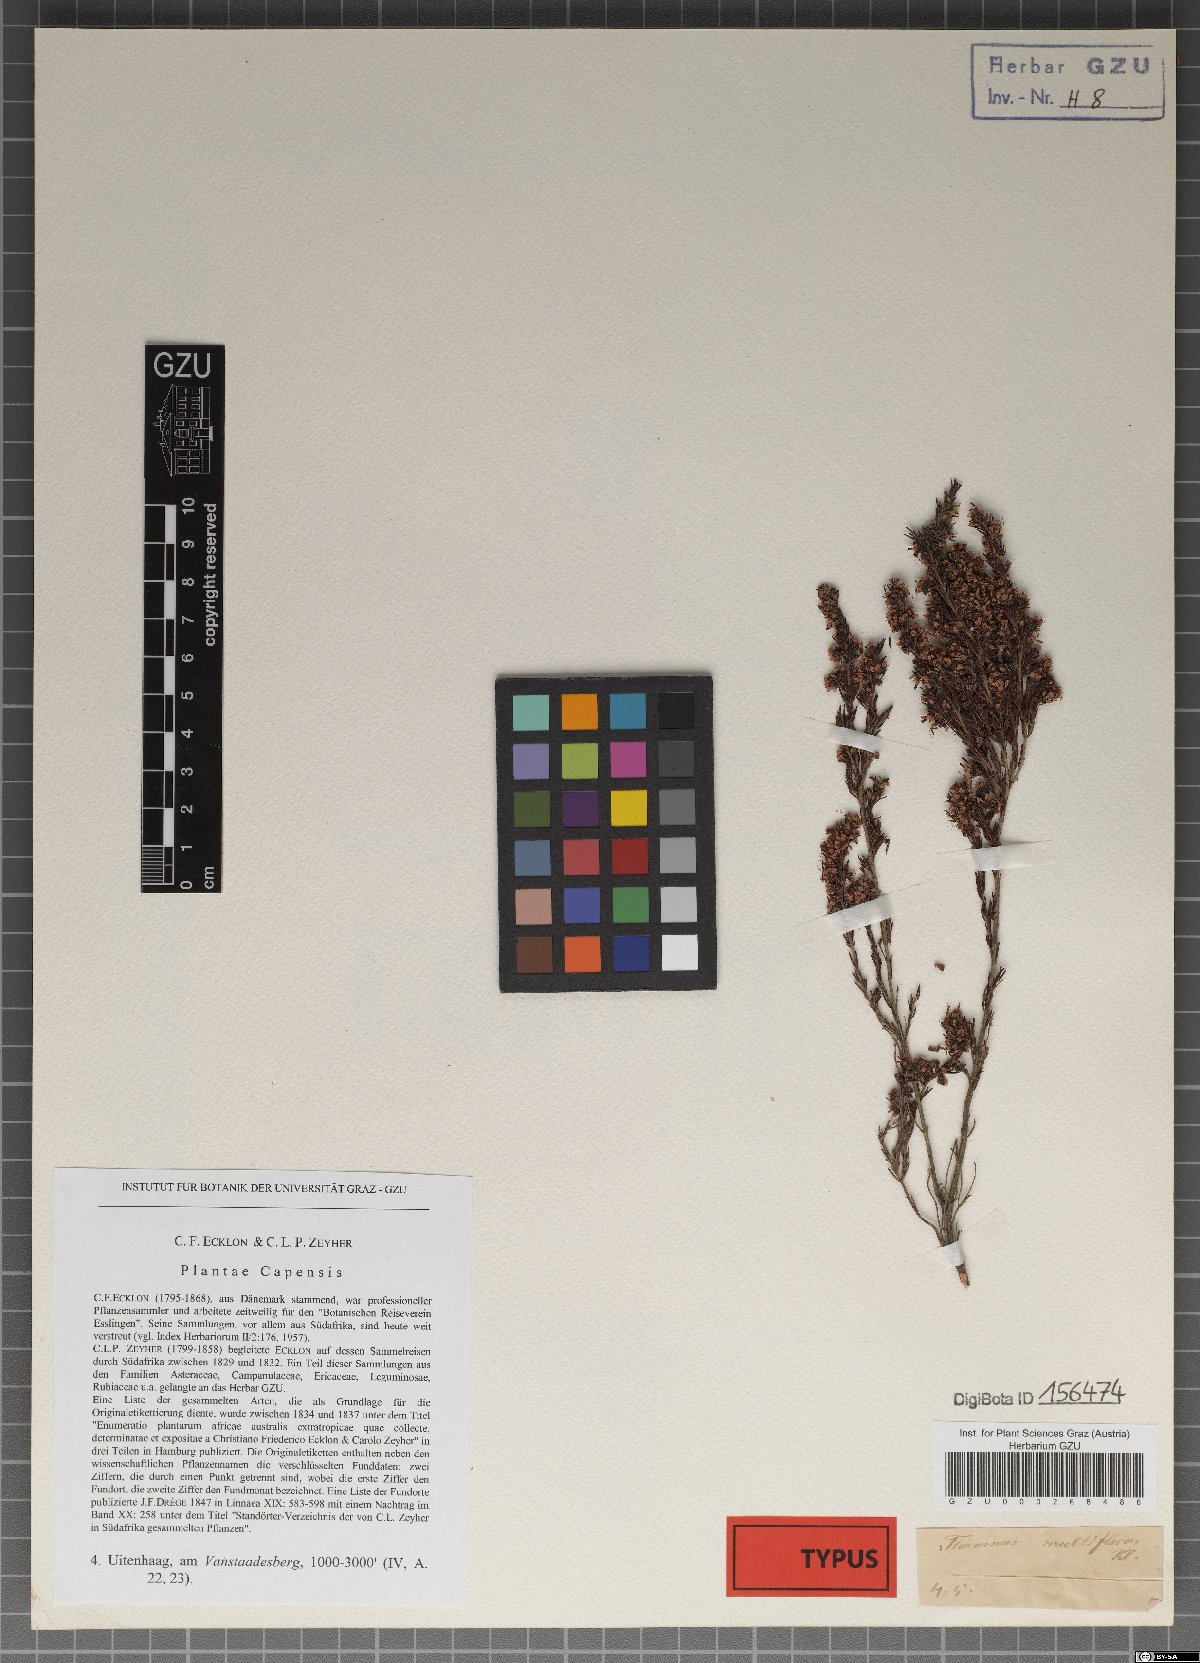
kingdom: Plantae
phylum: Tracheophyta
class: Magnoliopsida
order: Ericales
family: Ericaceae
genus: Erica
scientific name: Erica thamnoides
